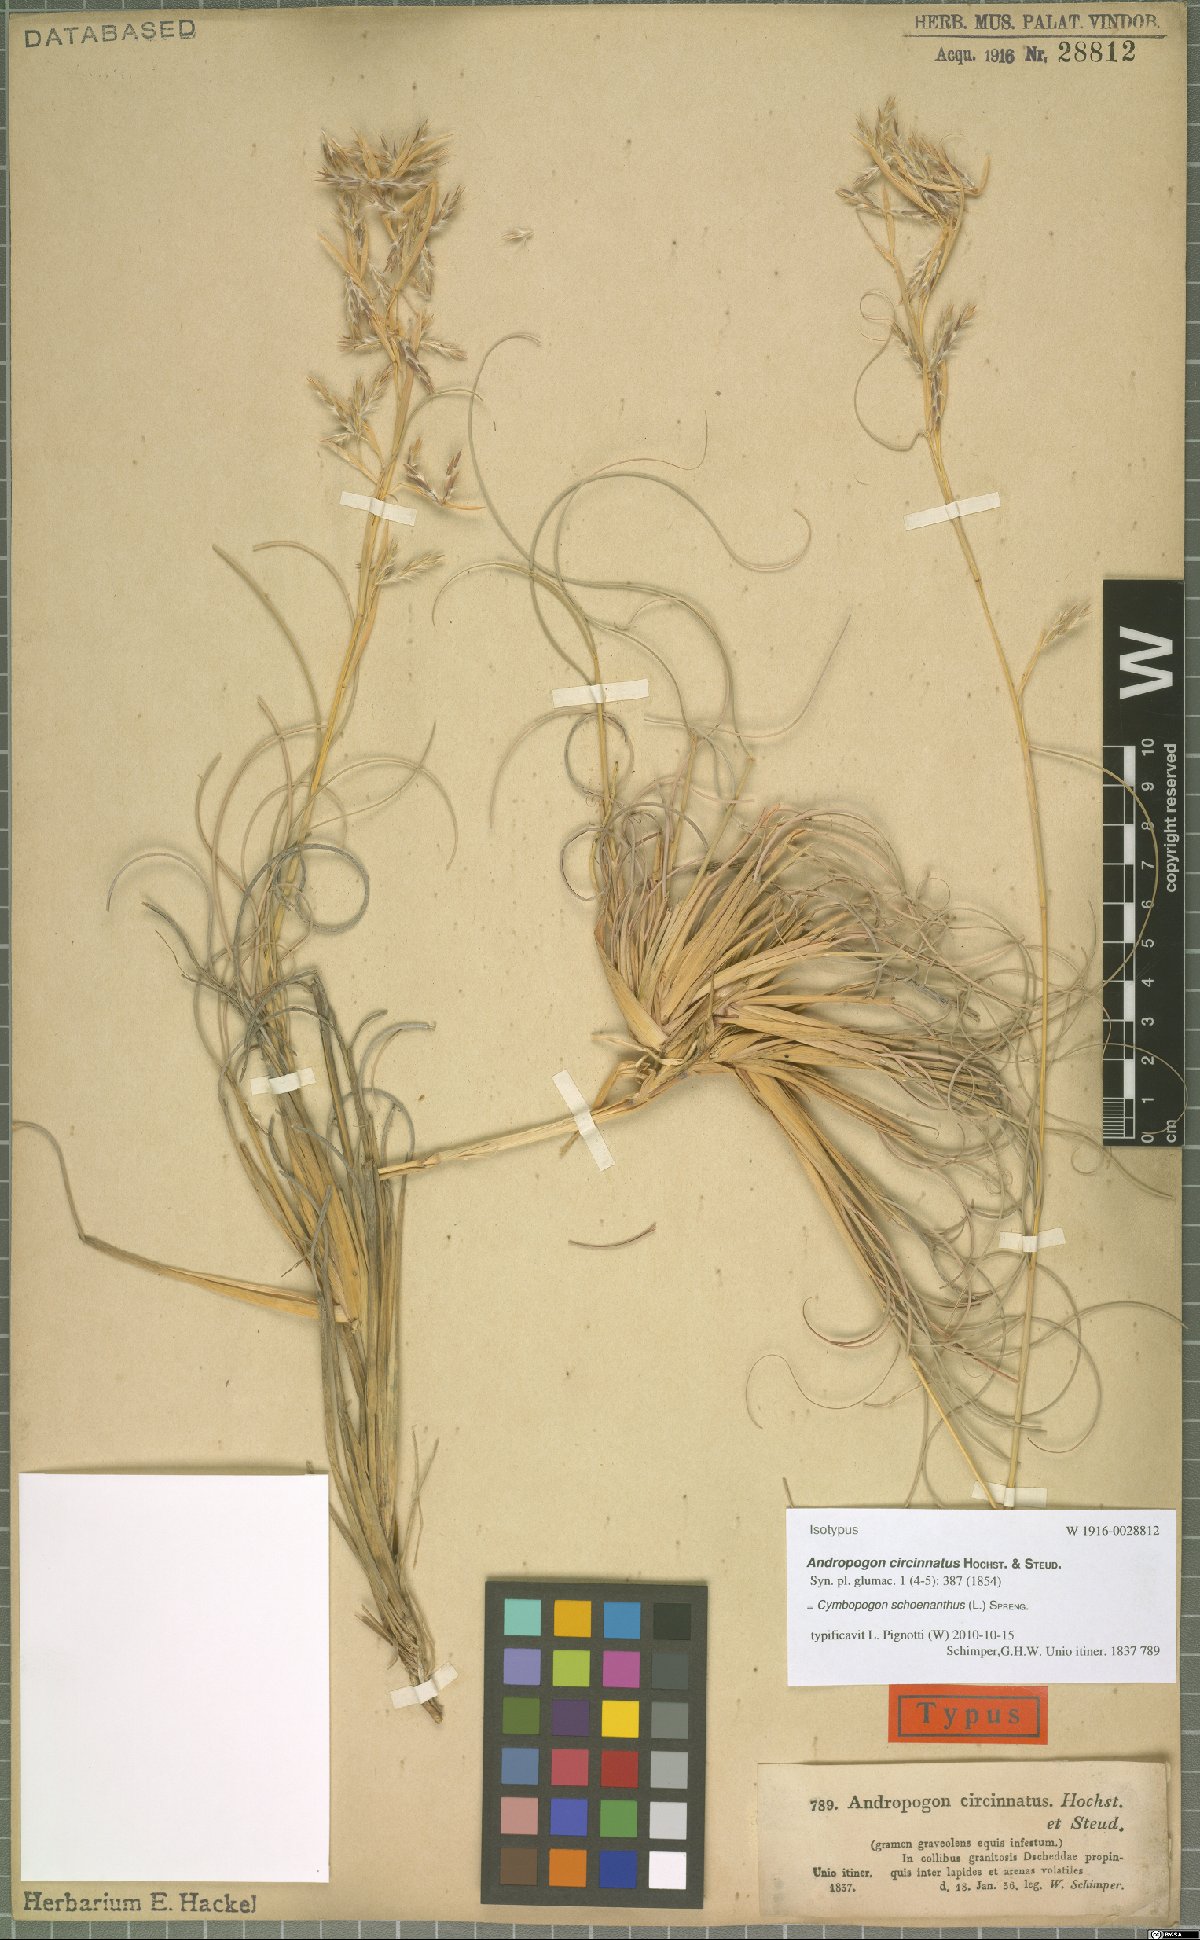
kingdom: Plantae
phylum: Tracheophyta
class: Liliopsida
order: Poales
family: Poaceae
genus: Cymbopogon
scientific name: Cymbopogon schoenanthus
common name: Geranium grass
